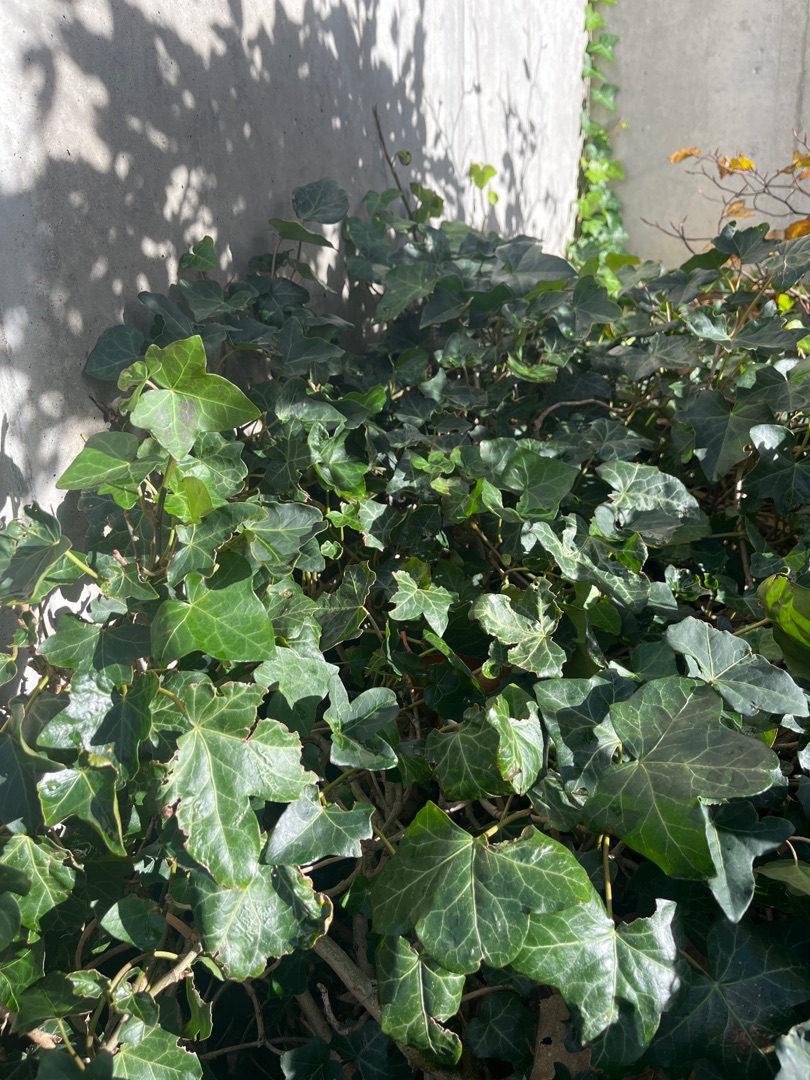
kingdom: Plantae
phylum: Tracheophyta
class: Magnoliopsida
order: Apiales
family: Araliaceae
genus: Hedera
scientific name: Hedera hibernica
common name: Irsk vedbend
